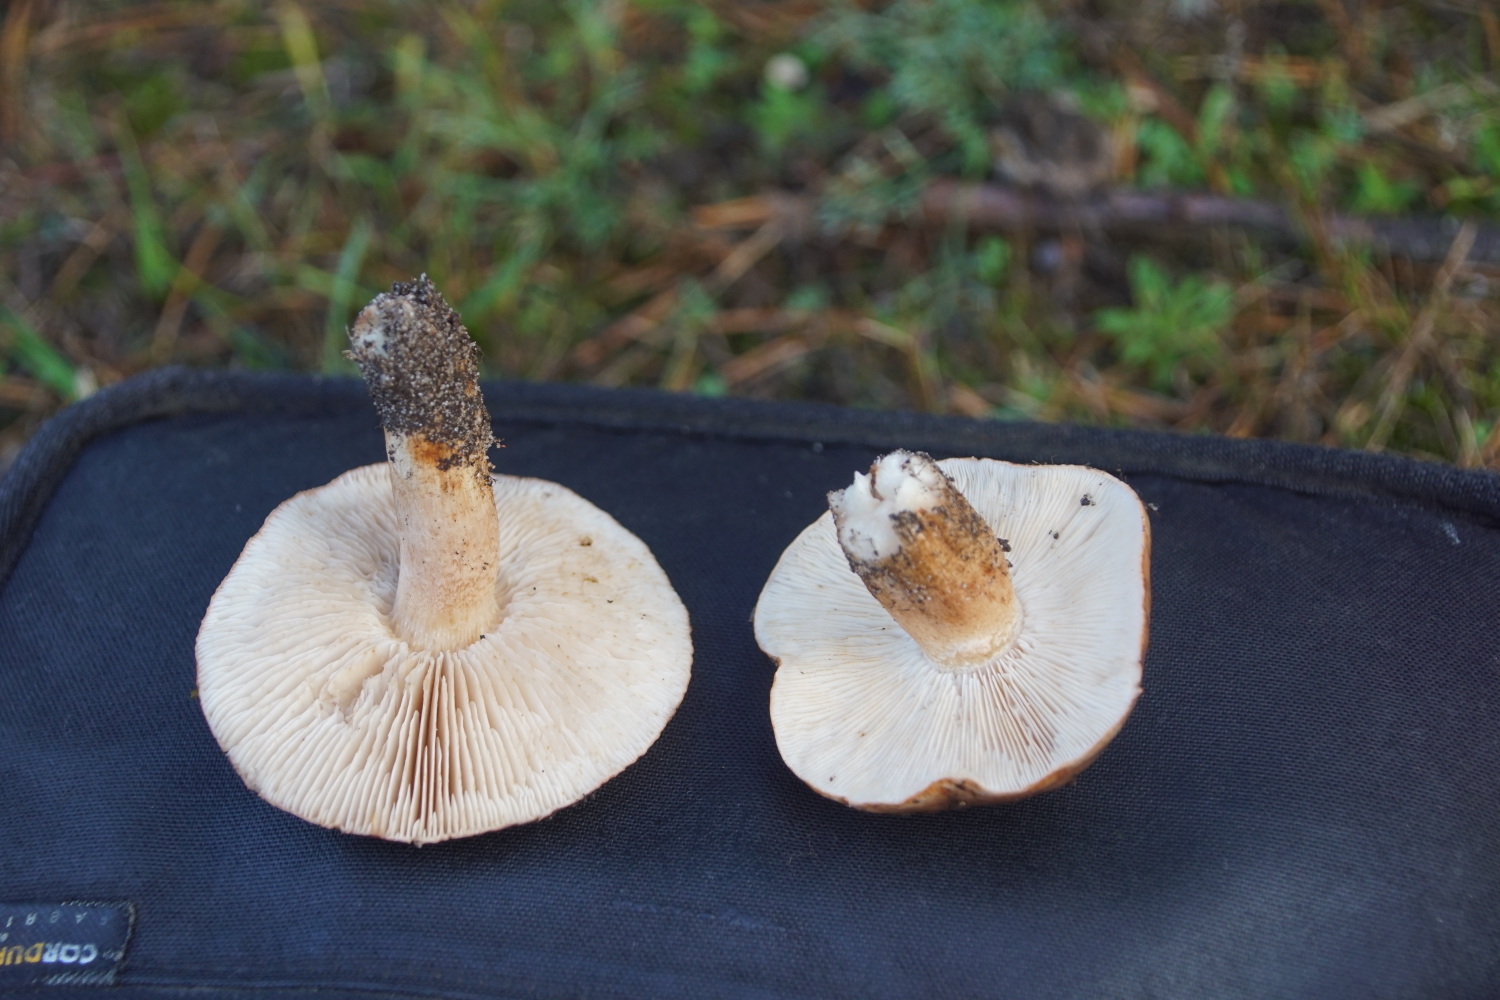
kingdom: Fungi
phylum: Basidiomycota
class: Agaricomycetes
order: Agaricales
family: Tricholomataceae
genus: Tricholoma
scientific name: Tricholoma albobrunneum
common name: kastanie-ridderhat
